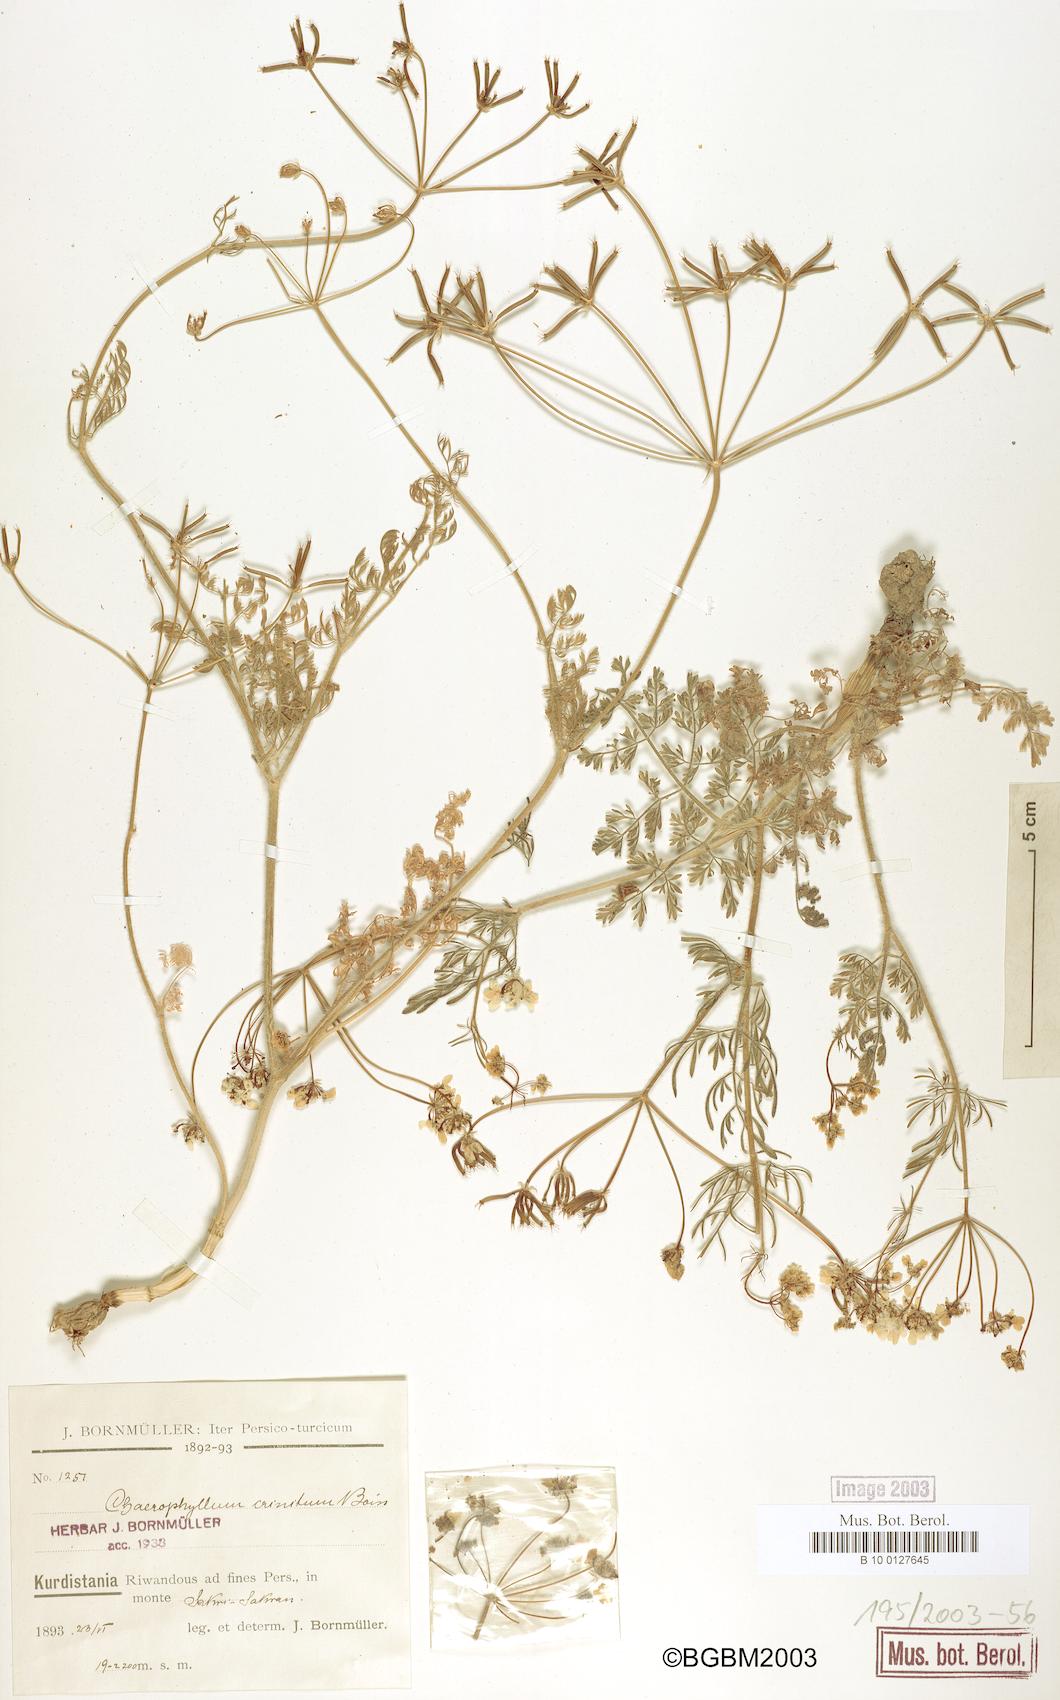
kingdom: Plantae
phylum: Tracheophyta
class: Magnoliopsida
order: Apiales
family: Apiaceae
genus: Chaerophyllum
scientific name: Chaerophyllum crinitum
